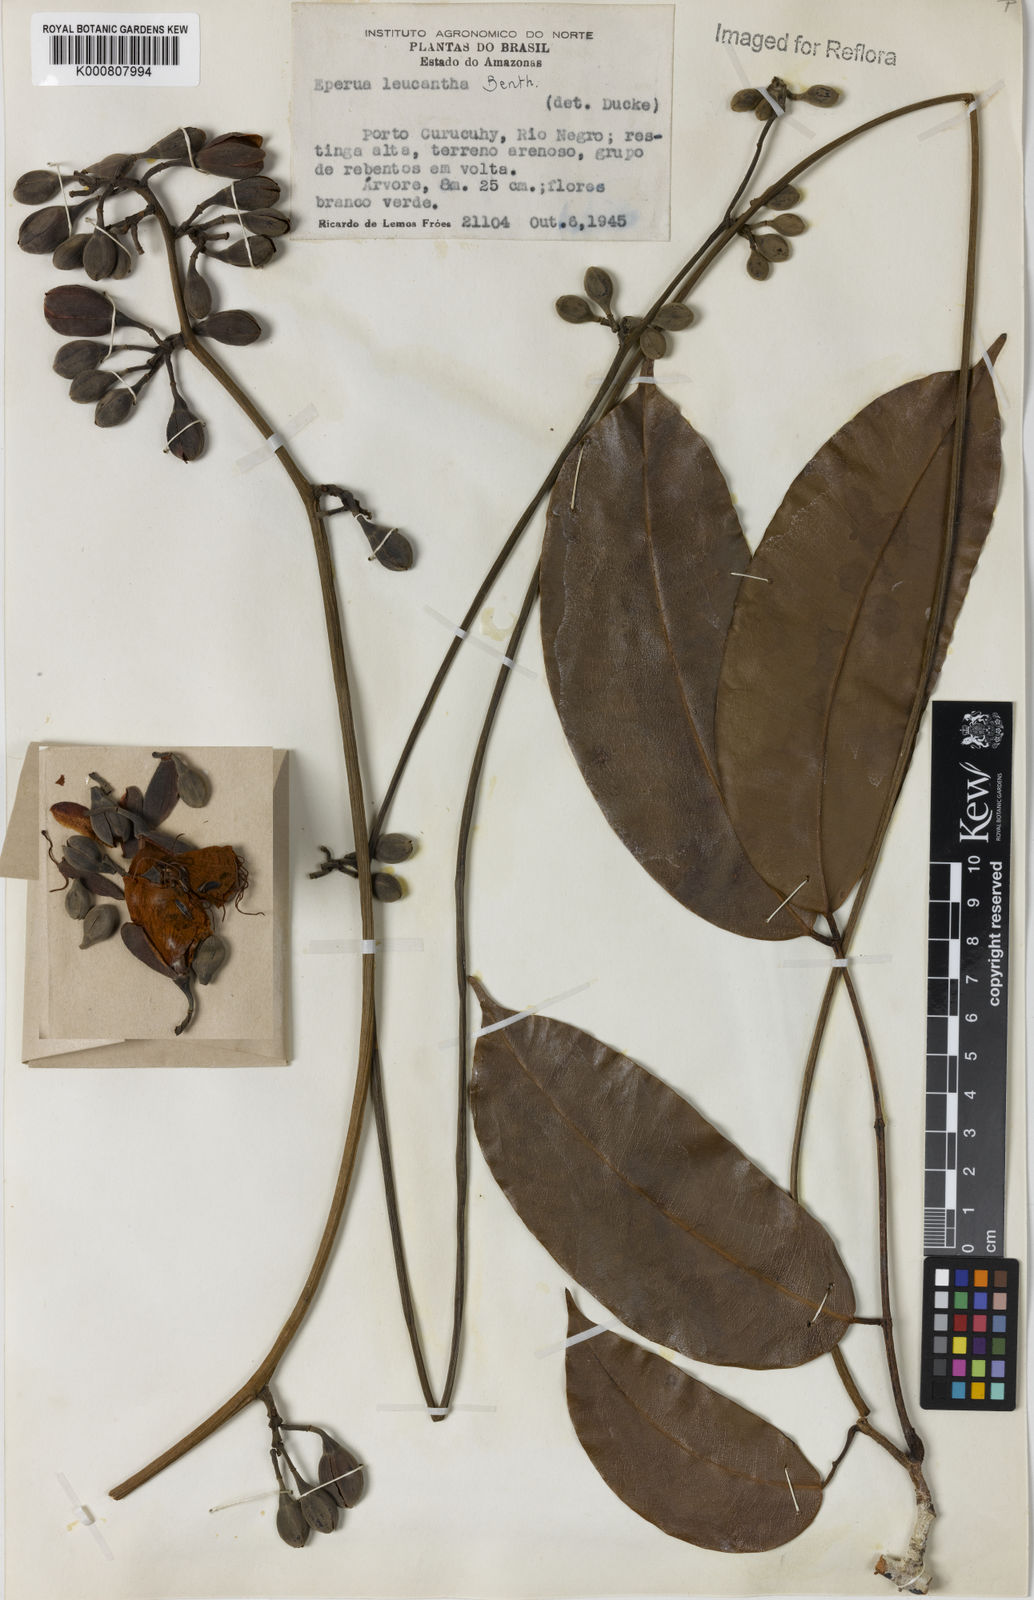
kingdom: Plantae
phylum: Tracheophyta
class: Magnoliopsida
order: Fabales
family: Fabaceae
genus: Eperua
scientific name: Eperua leucantha
